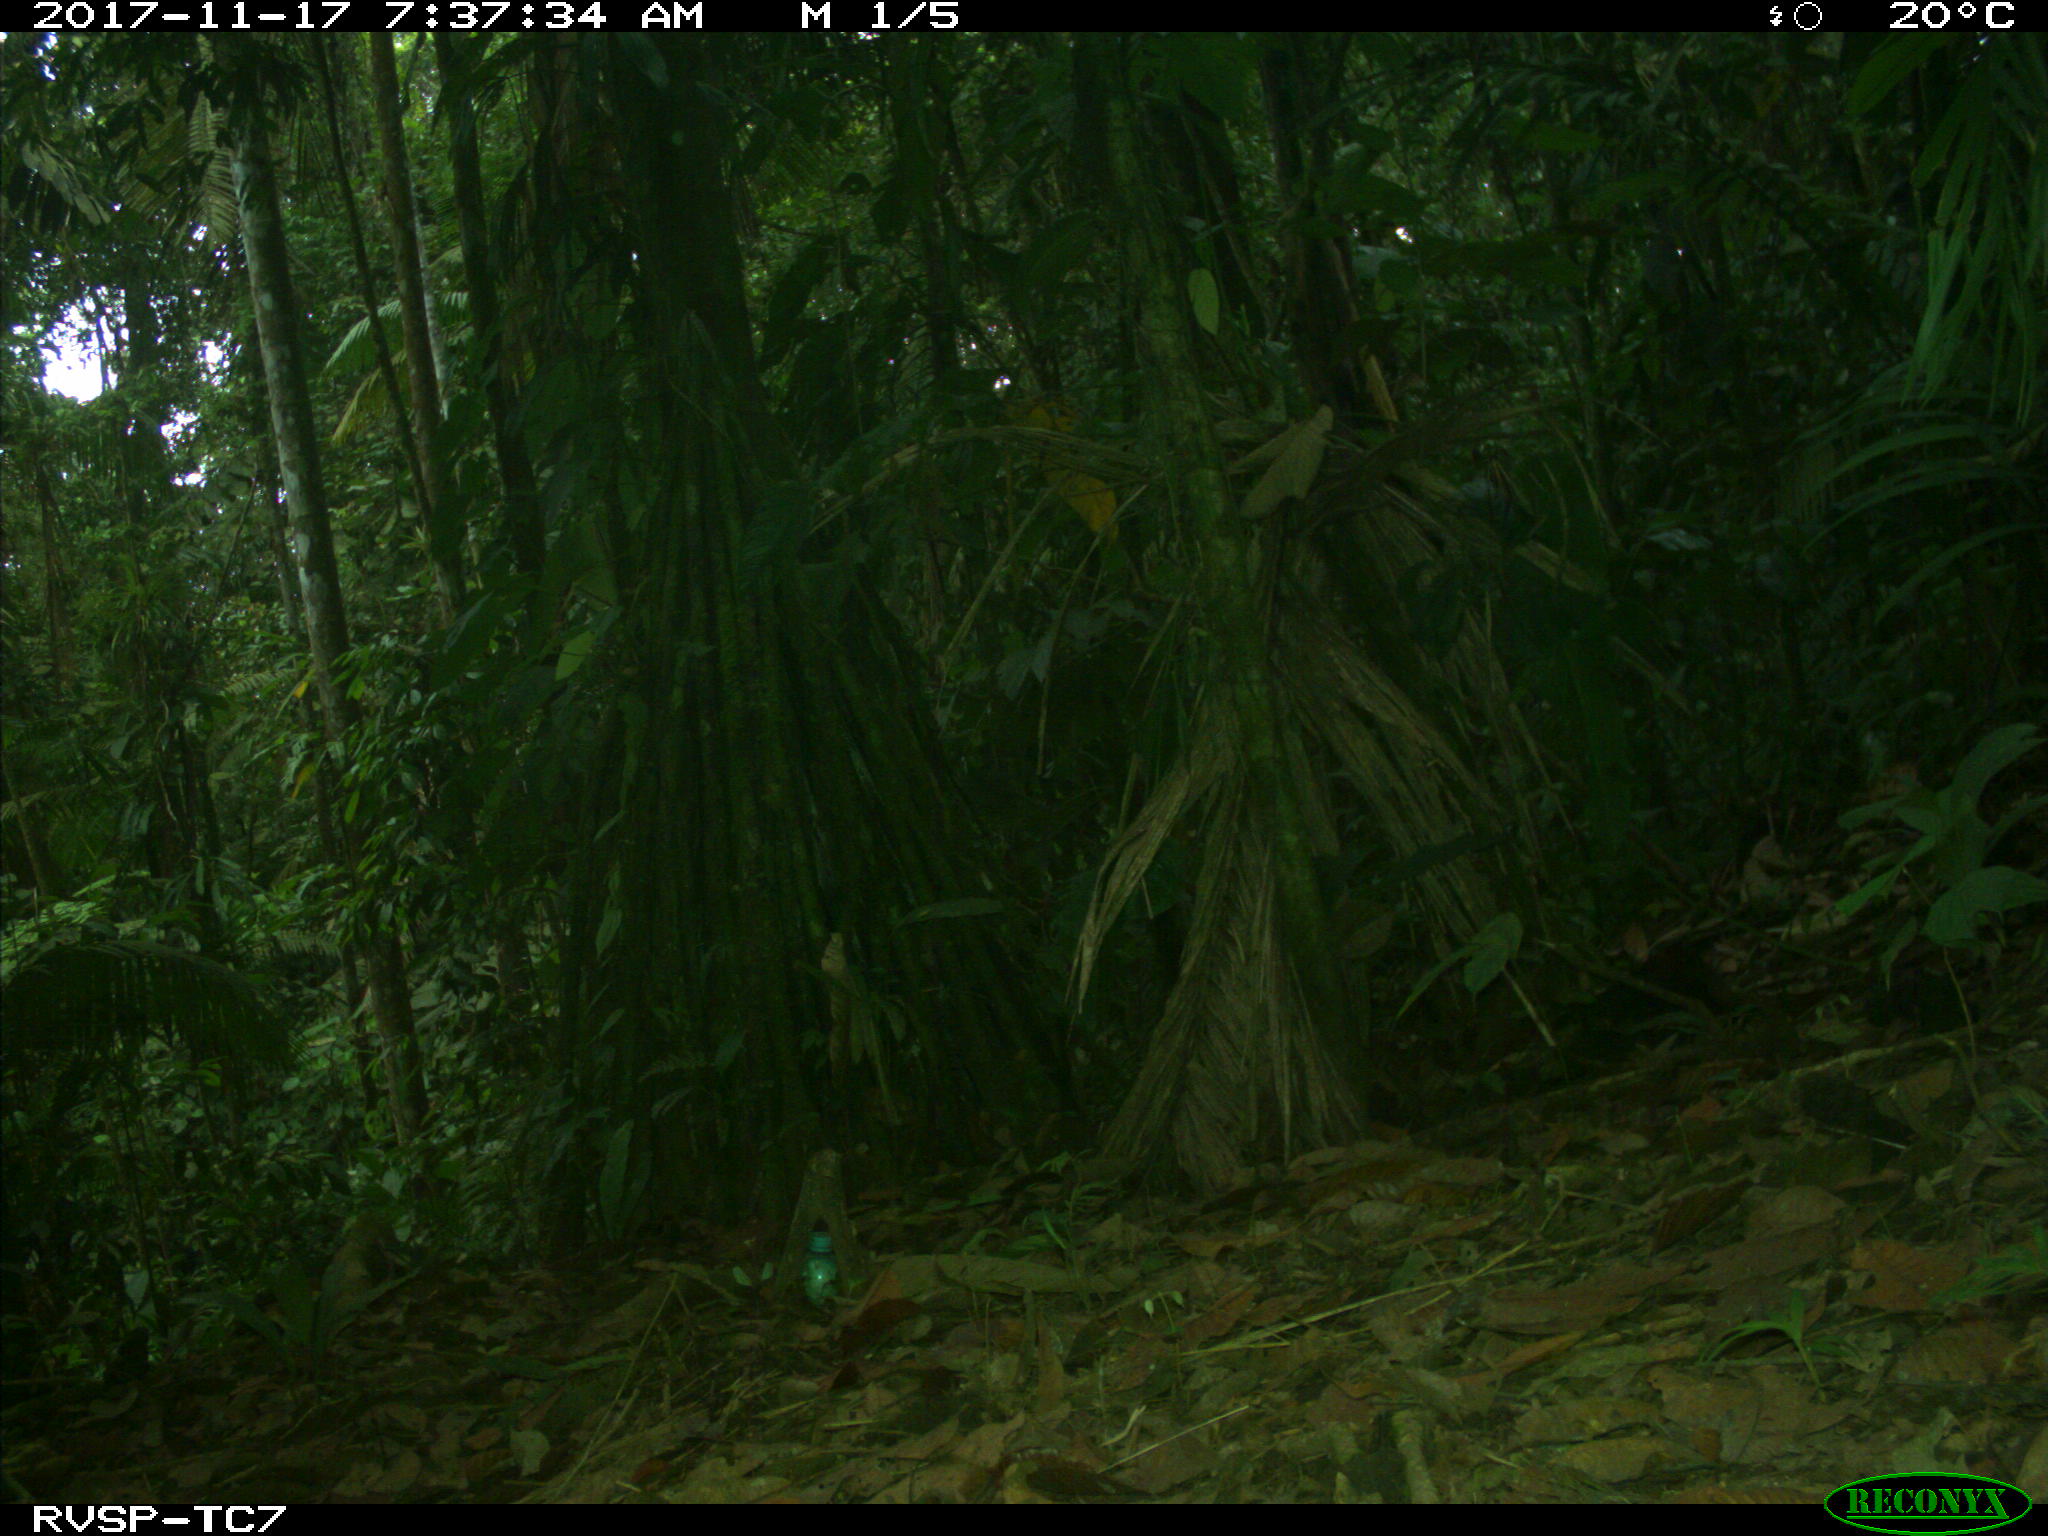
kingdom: Animalia
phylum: Chordata
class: Mammalia
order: Rodentia
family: Dasyproctidae
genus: Dasyprocta
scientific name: Dasyprocta punctata
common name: Central american agouti
